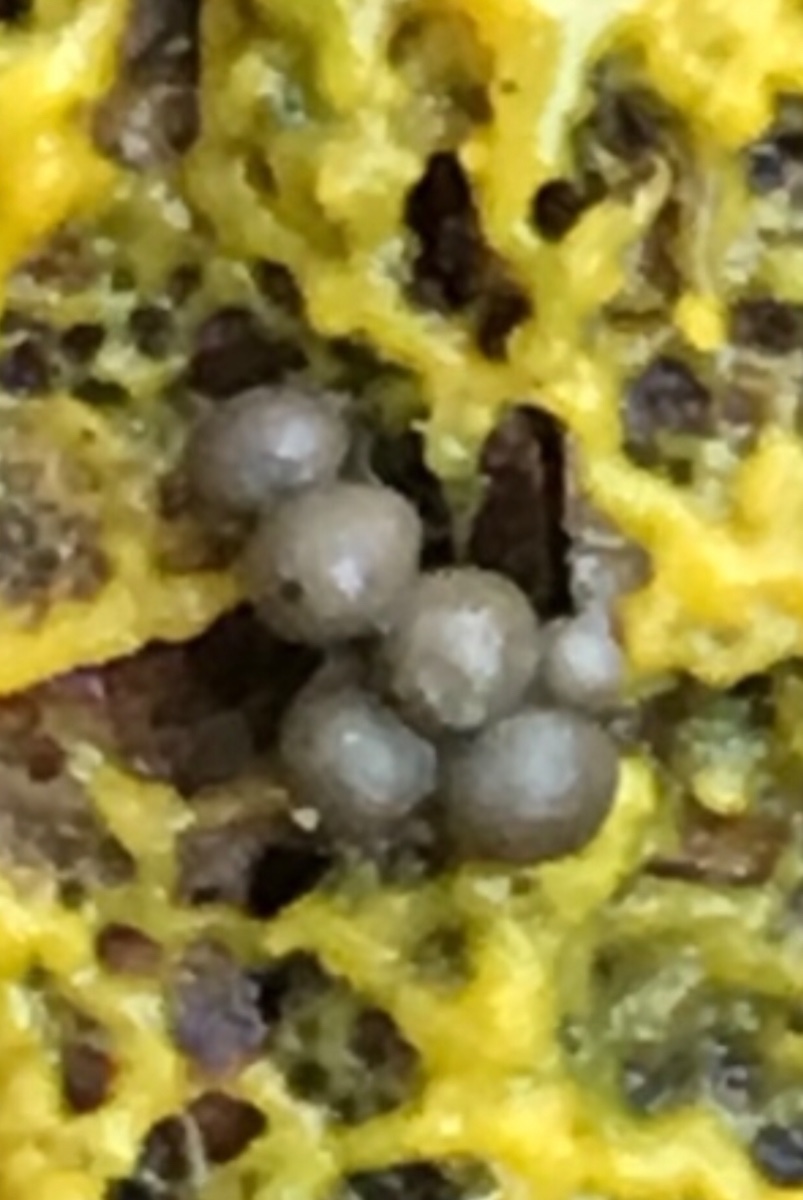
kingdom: Protozoa
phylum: Mycetozoa
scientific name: Mycetozoa
